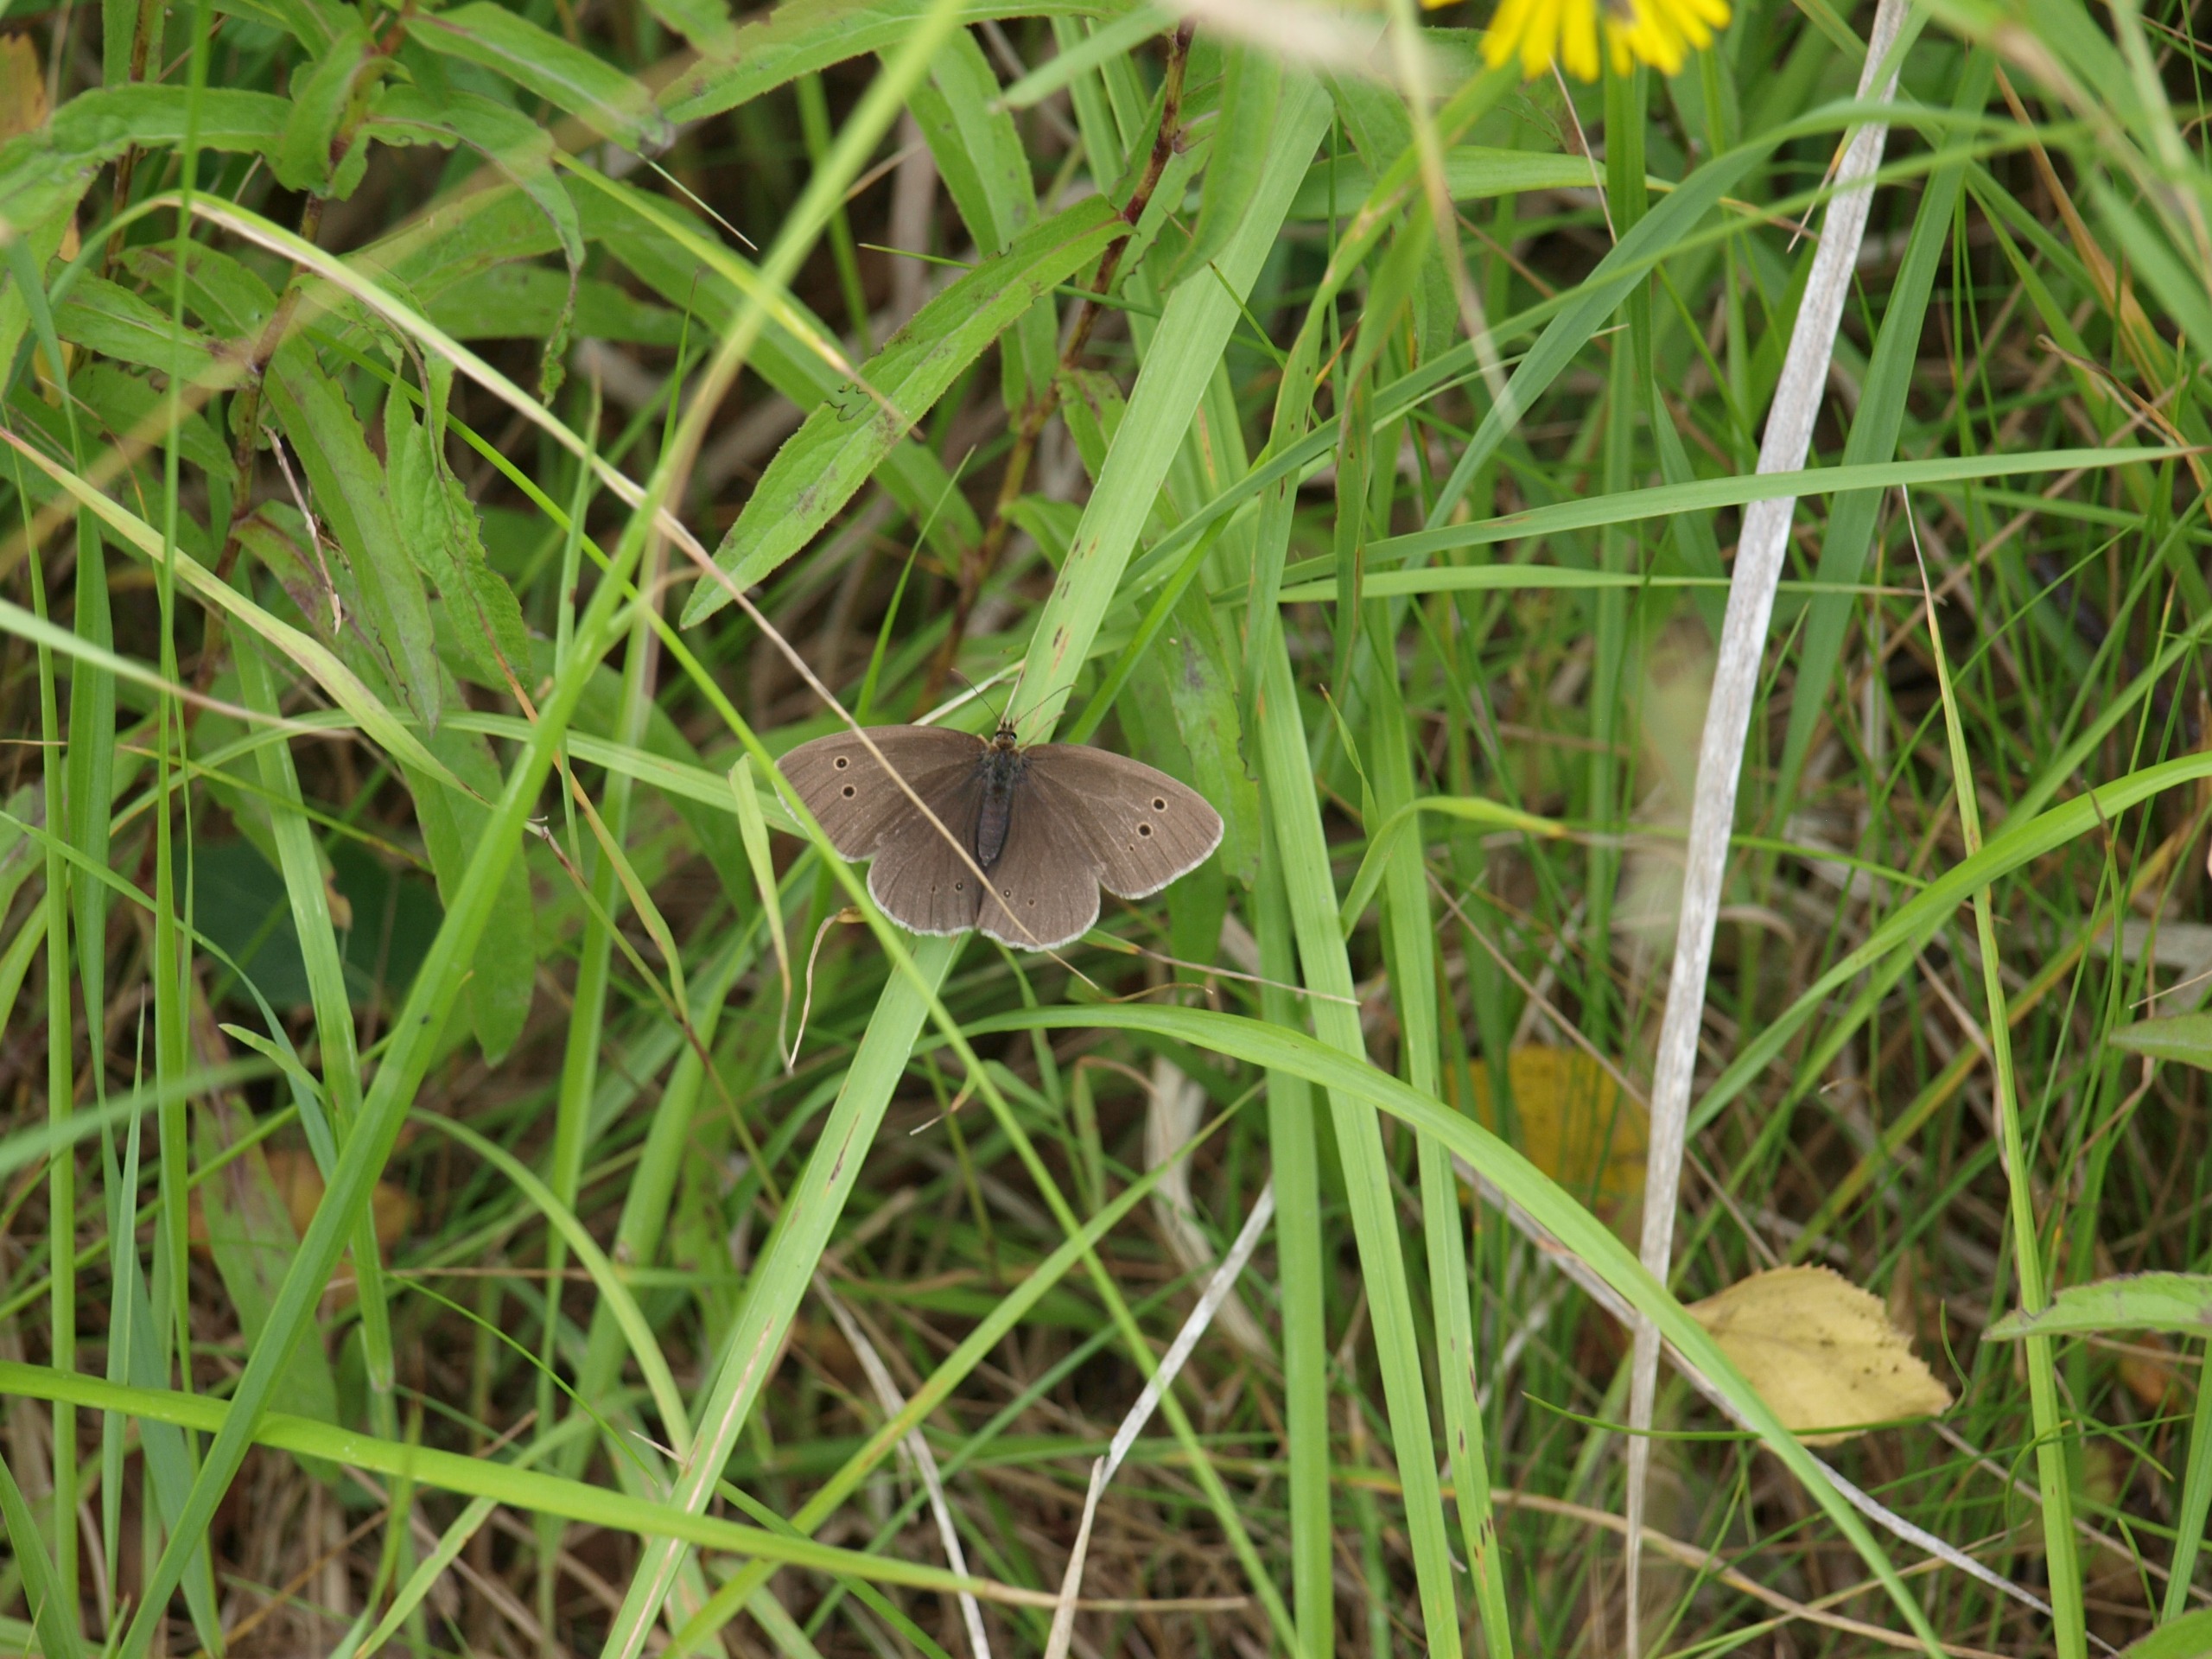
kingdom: Animalia
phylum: Arthropoda
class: Insecta
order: Lepidoptera
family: Nymphalidae
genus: Aphantopus
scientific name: Aphantopus hyperantus
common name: Engrandøje
